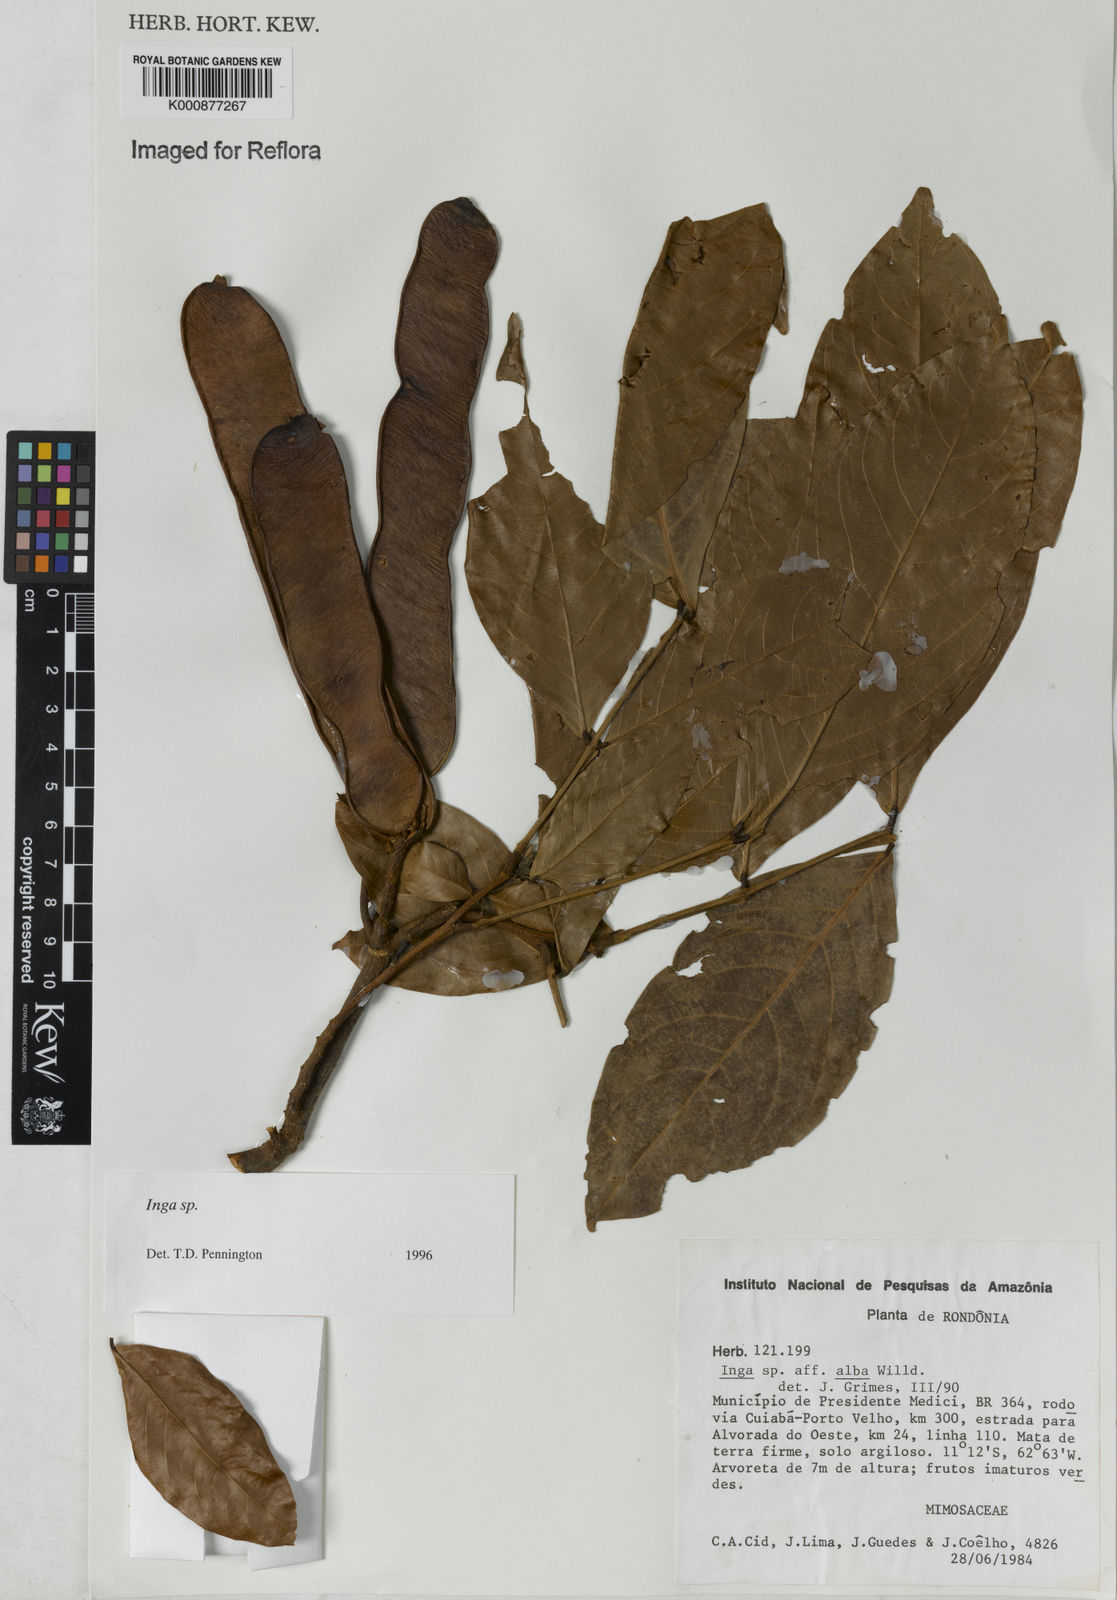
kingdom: Plantae
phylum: Tracheophyta
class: Magnoliopsida
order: Fabales
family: Fabaceae
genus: Inga
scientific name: Inga
